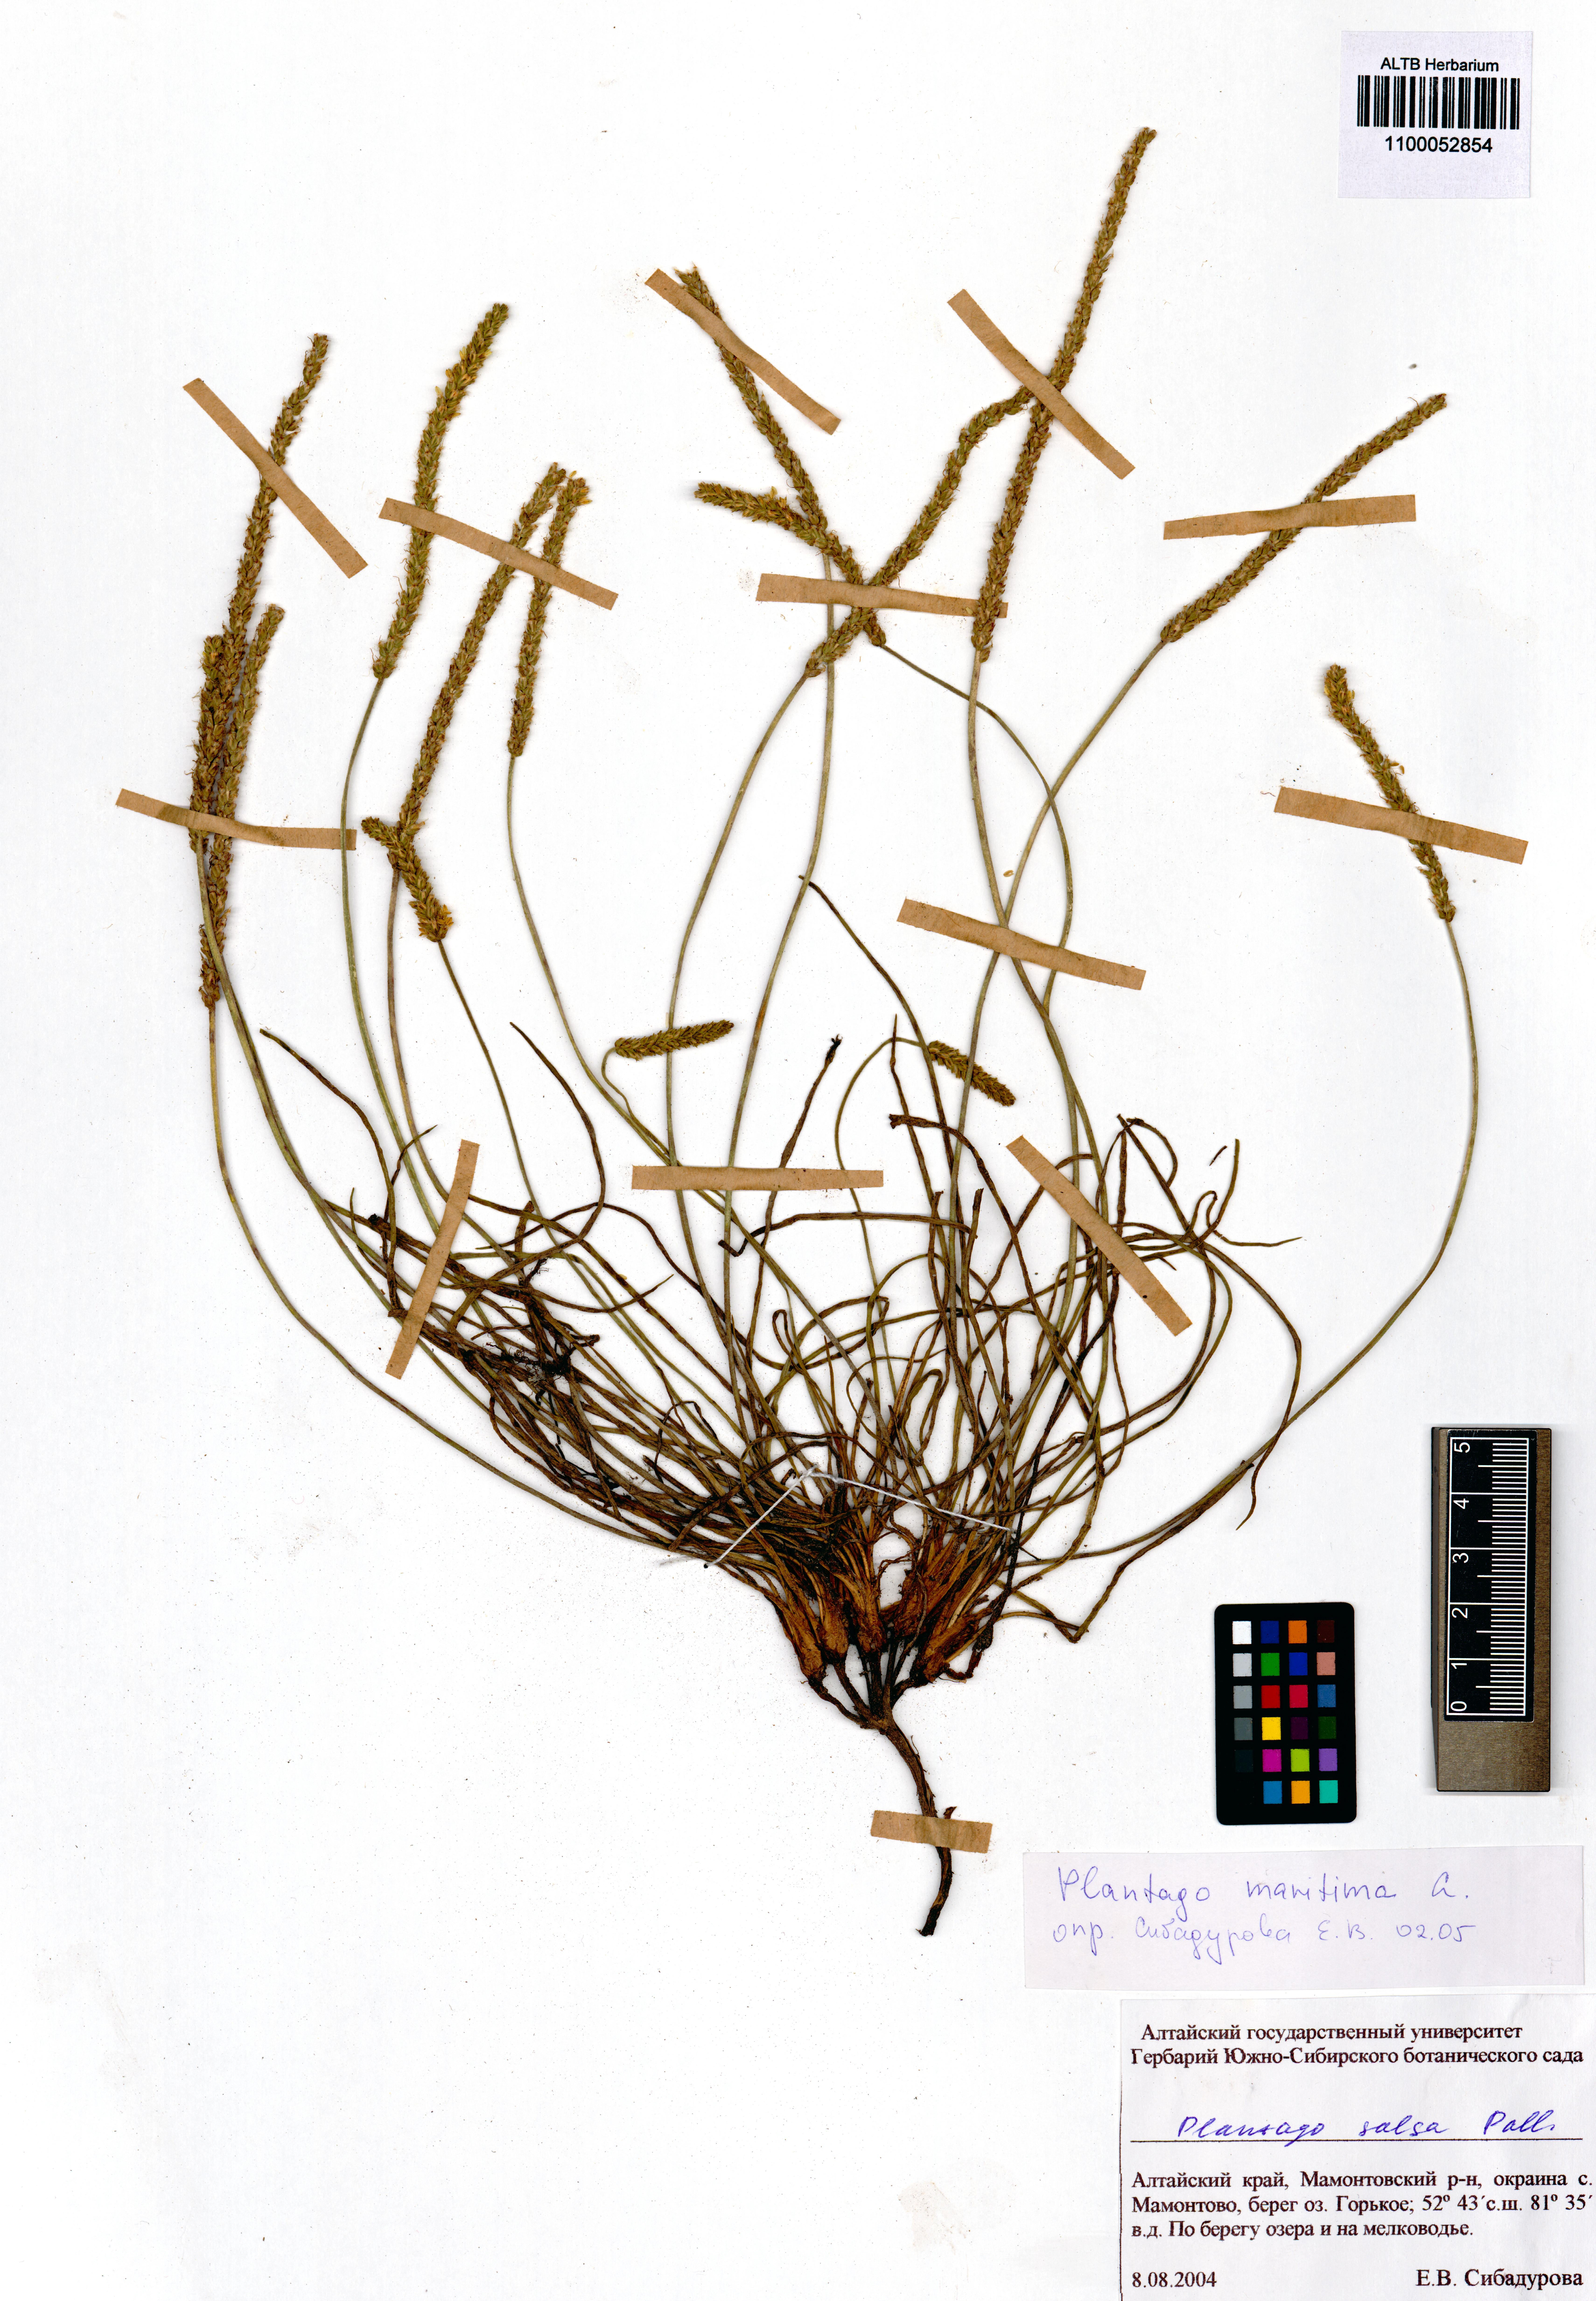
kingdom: Plantae
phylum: Tracheophyta
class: Magnoliopsida
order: Lamiales
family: Plantaginaceae
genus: Plantago
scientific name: Plantago maritima
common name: Sea plantain
